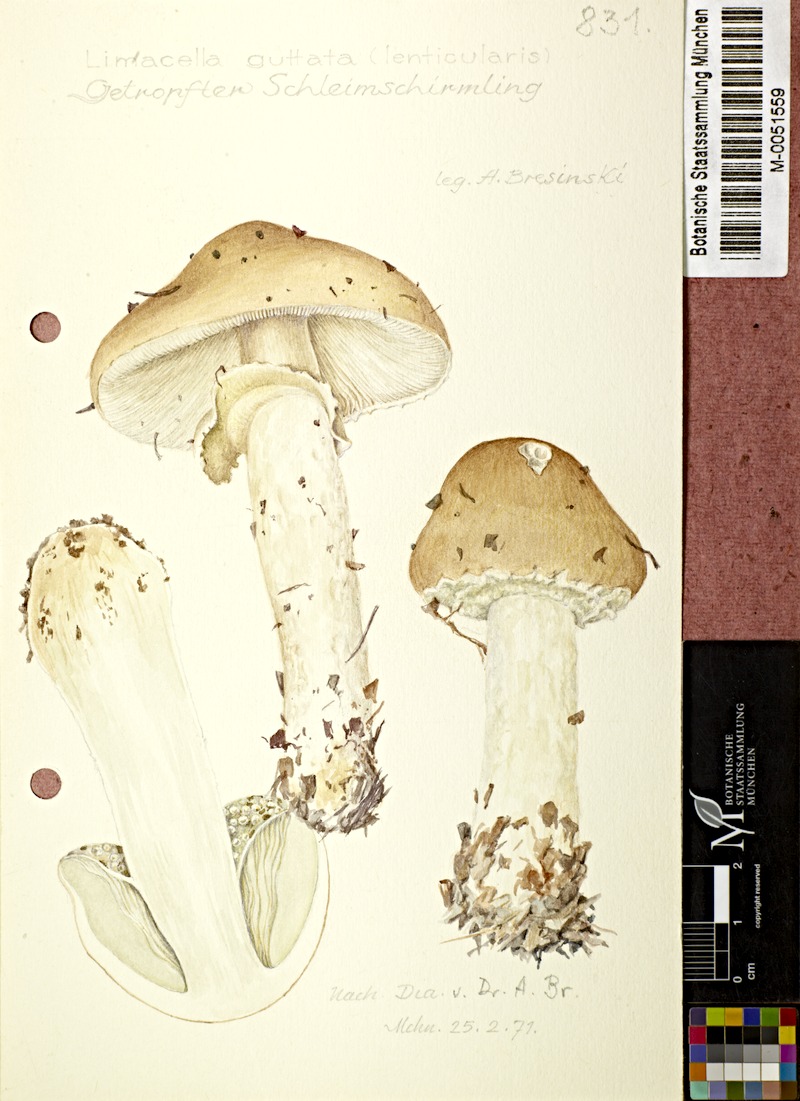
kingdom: Fungi
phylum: Basidiomycota
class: Agaricomycetes
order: Agaricales
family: Amanitaceae
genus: Limacellopsis
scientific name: Limacellopsis guttata
